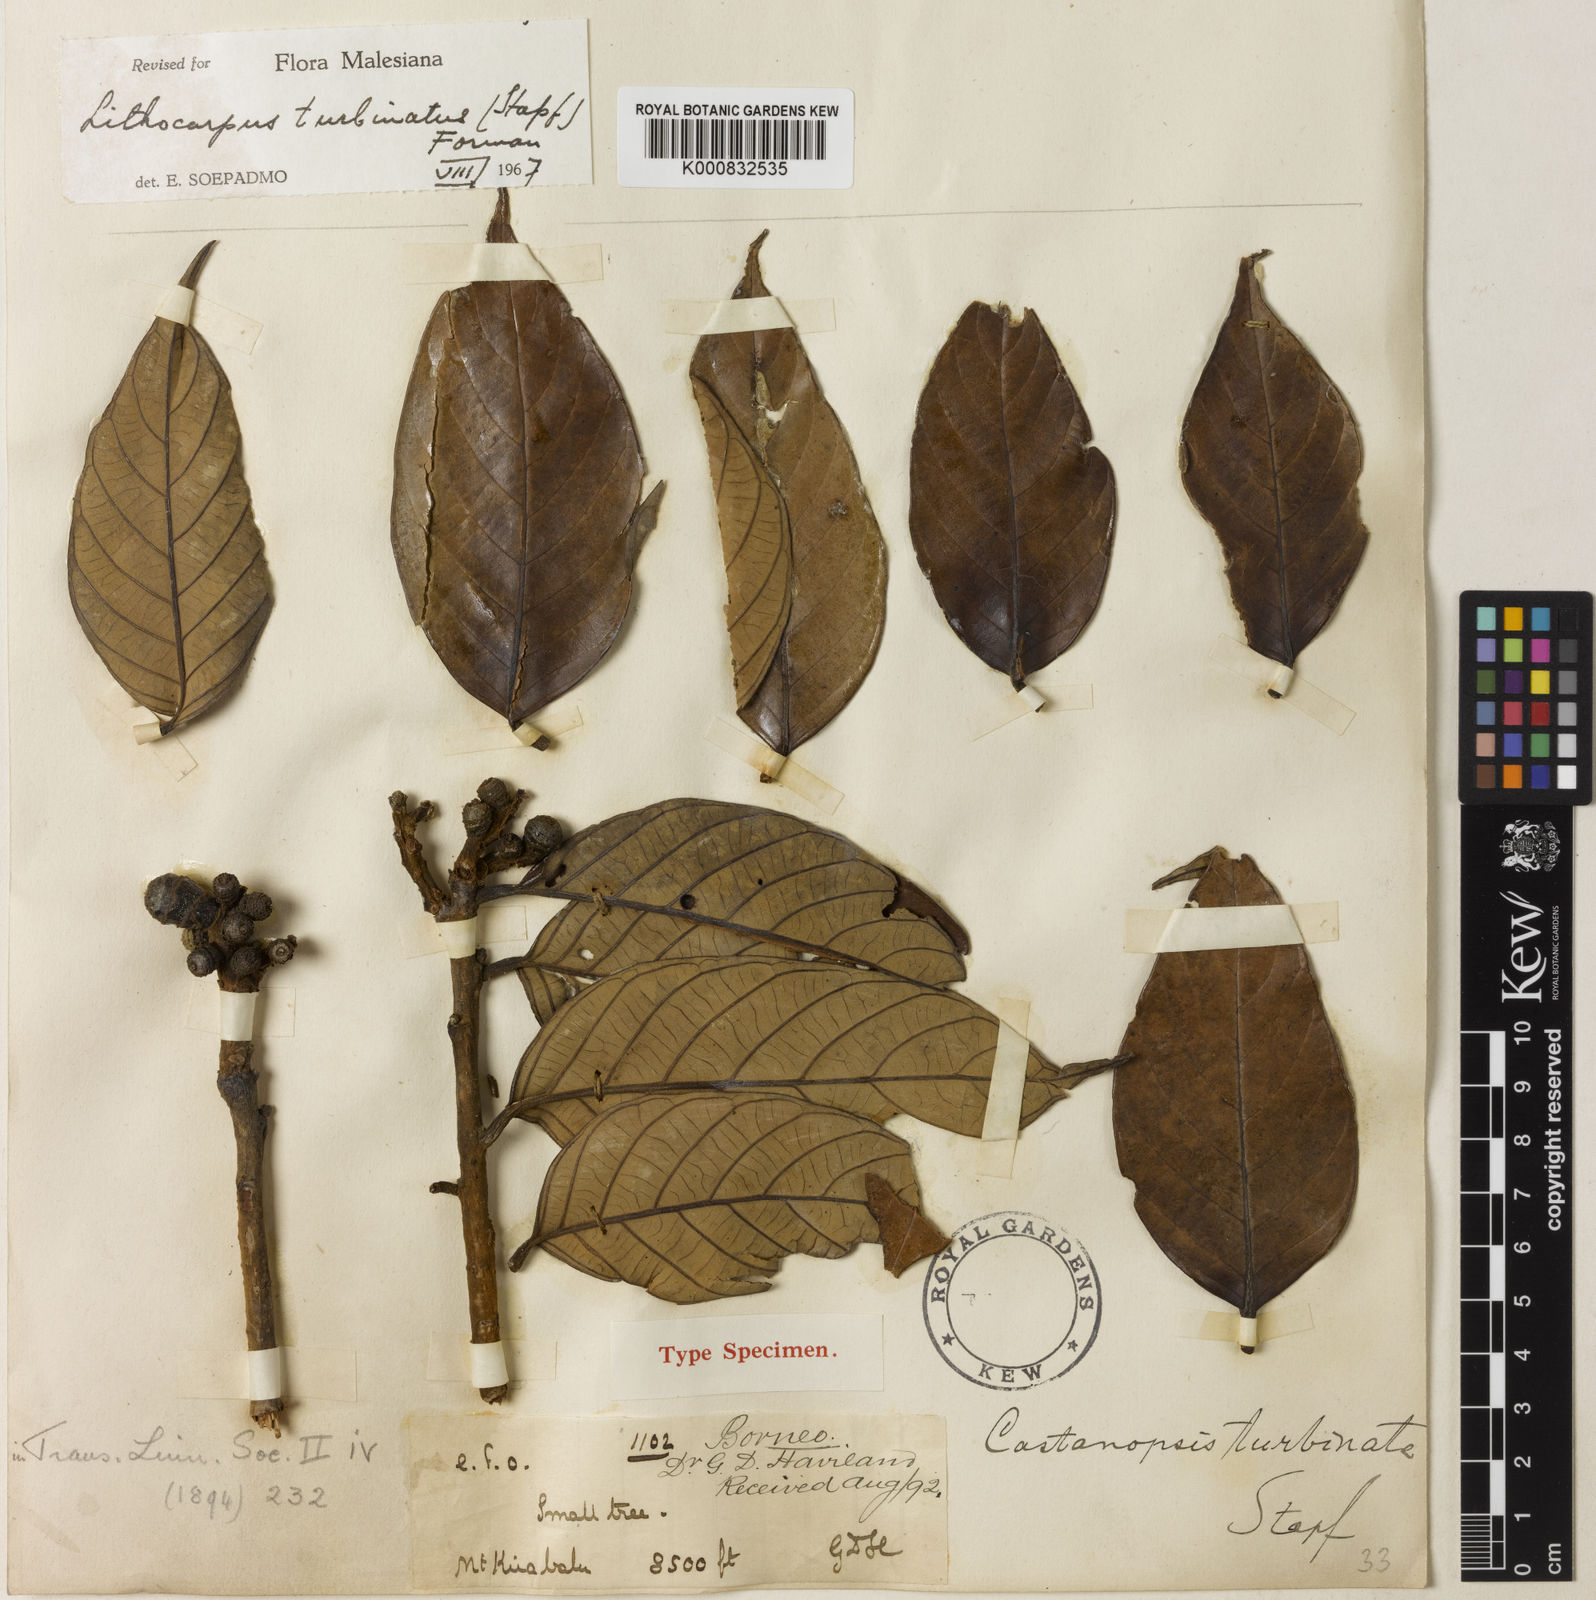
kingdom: Plantae
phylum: Tracheophyta
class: Magnoliopsida
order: Fagales
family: Fagaceae
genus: Lithocarpus
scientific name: Lithocarpus turbinatus
